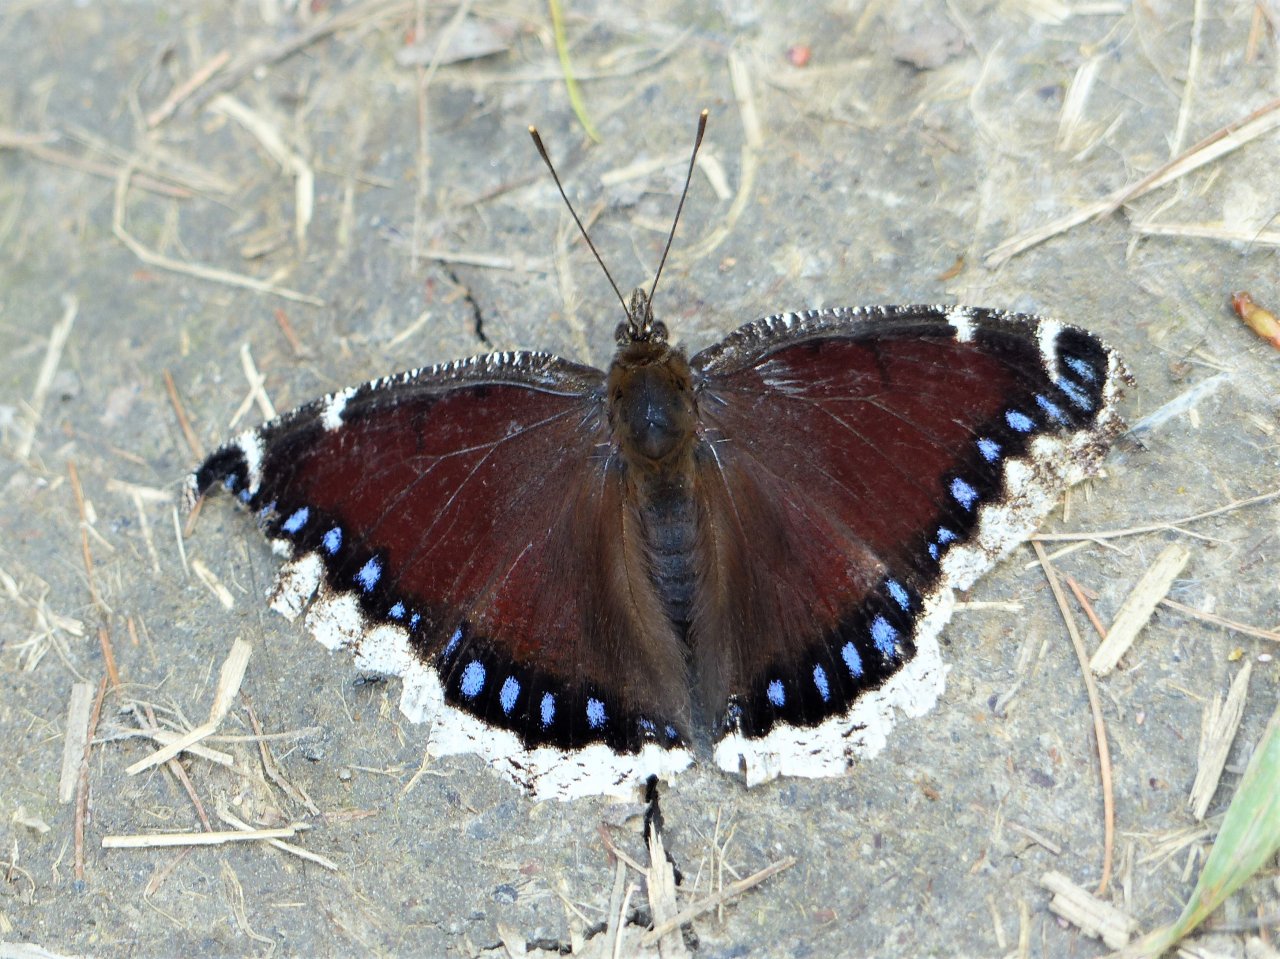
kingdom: Animalia
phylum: Arthropoda
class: Insecta
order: Lepidoptera
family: Nymphalidae
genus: Nymphalis
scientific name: Nymphalis antiopa
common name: Mourning Cloak
